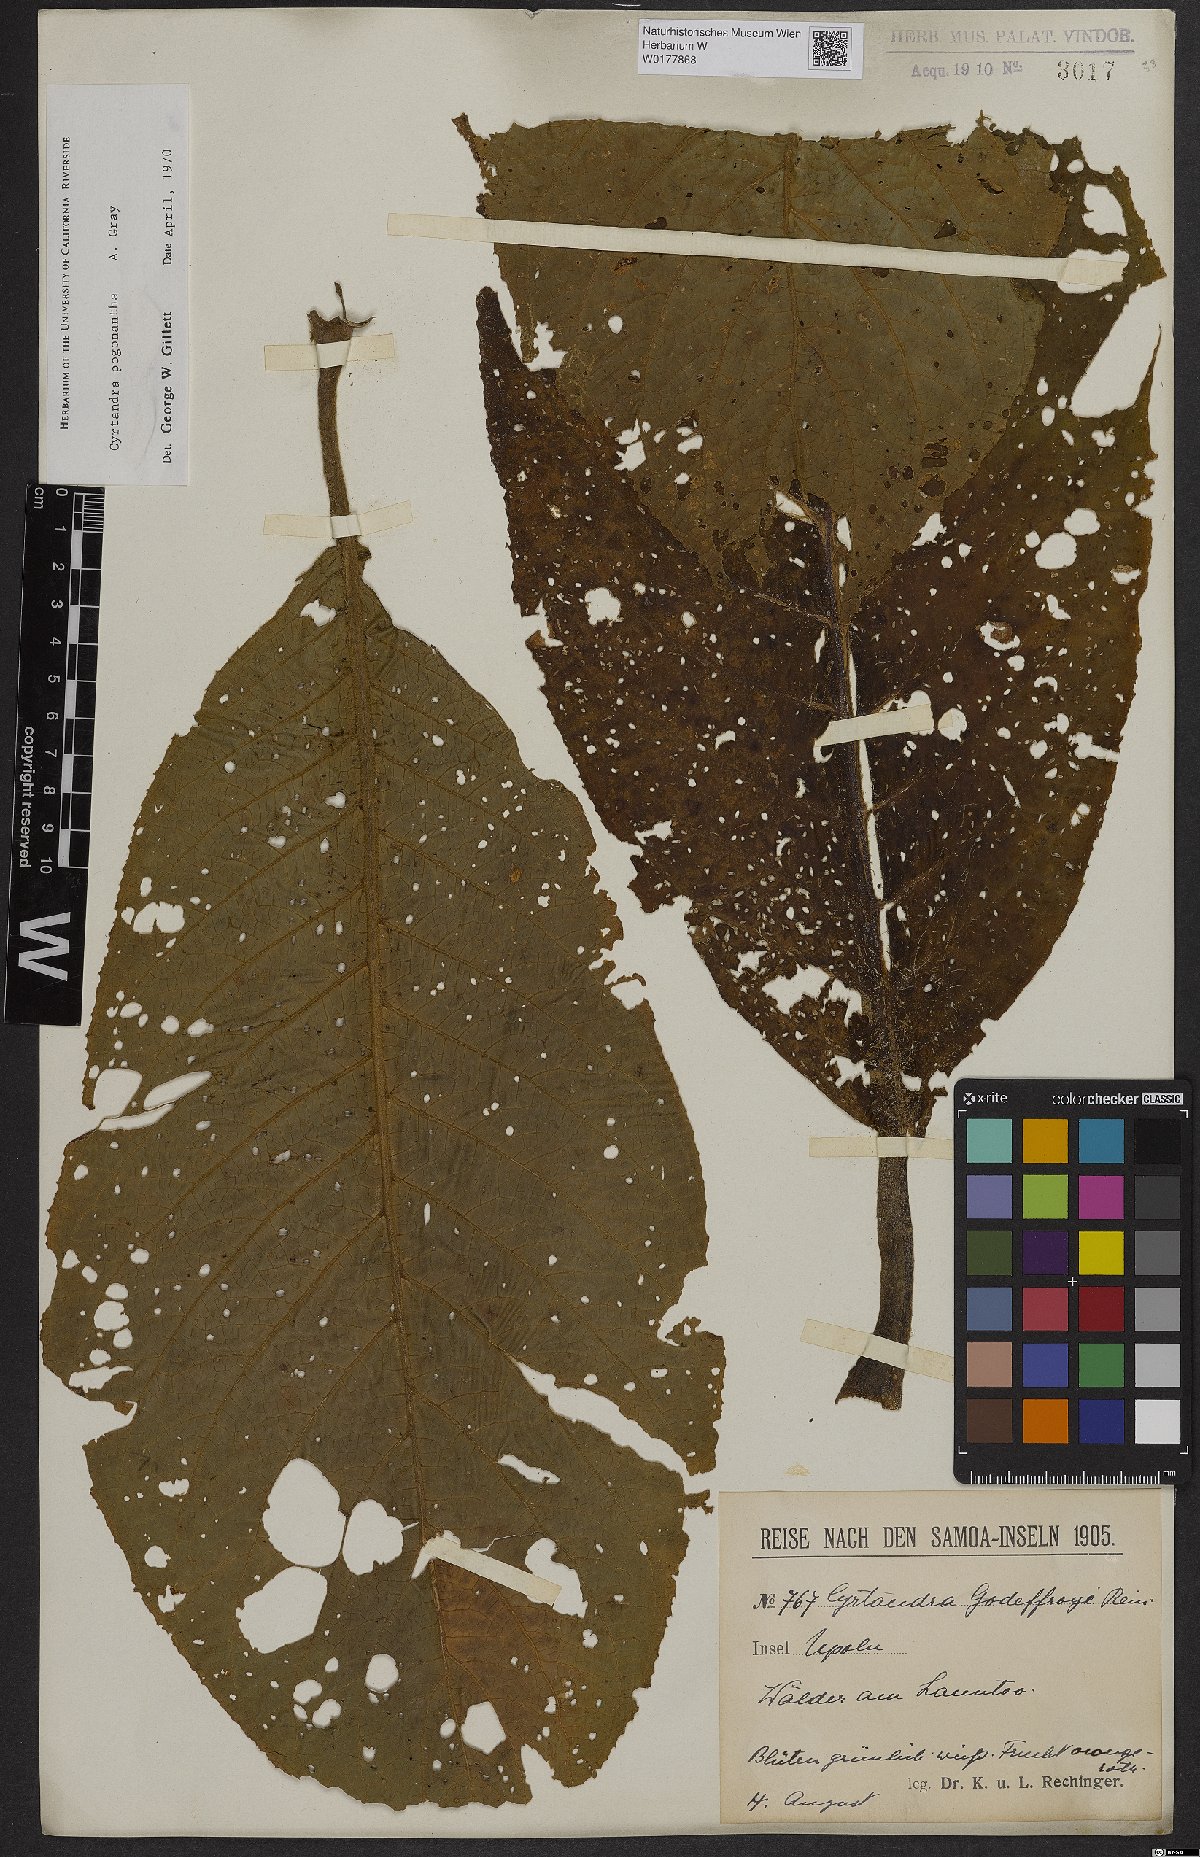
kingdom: Plantae
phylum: Tracheophyta
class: Magnoliopsida
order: Lamiales
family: Gesneriaceae
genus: Cyrtandra
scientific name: Cyrtandra pogonantha
